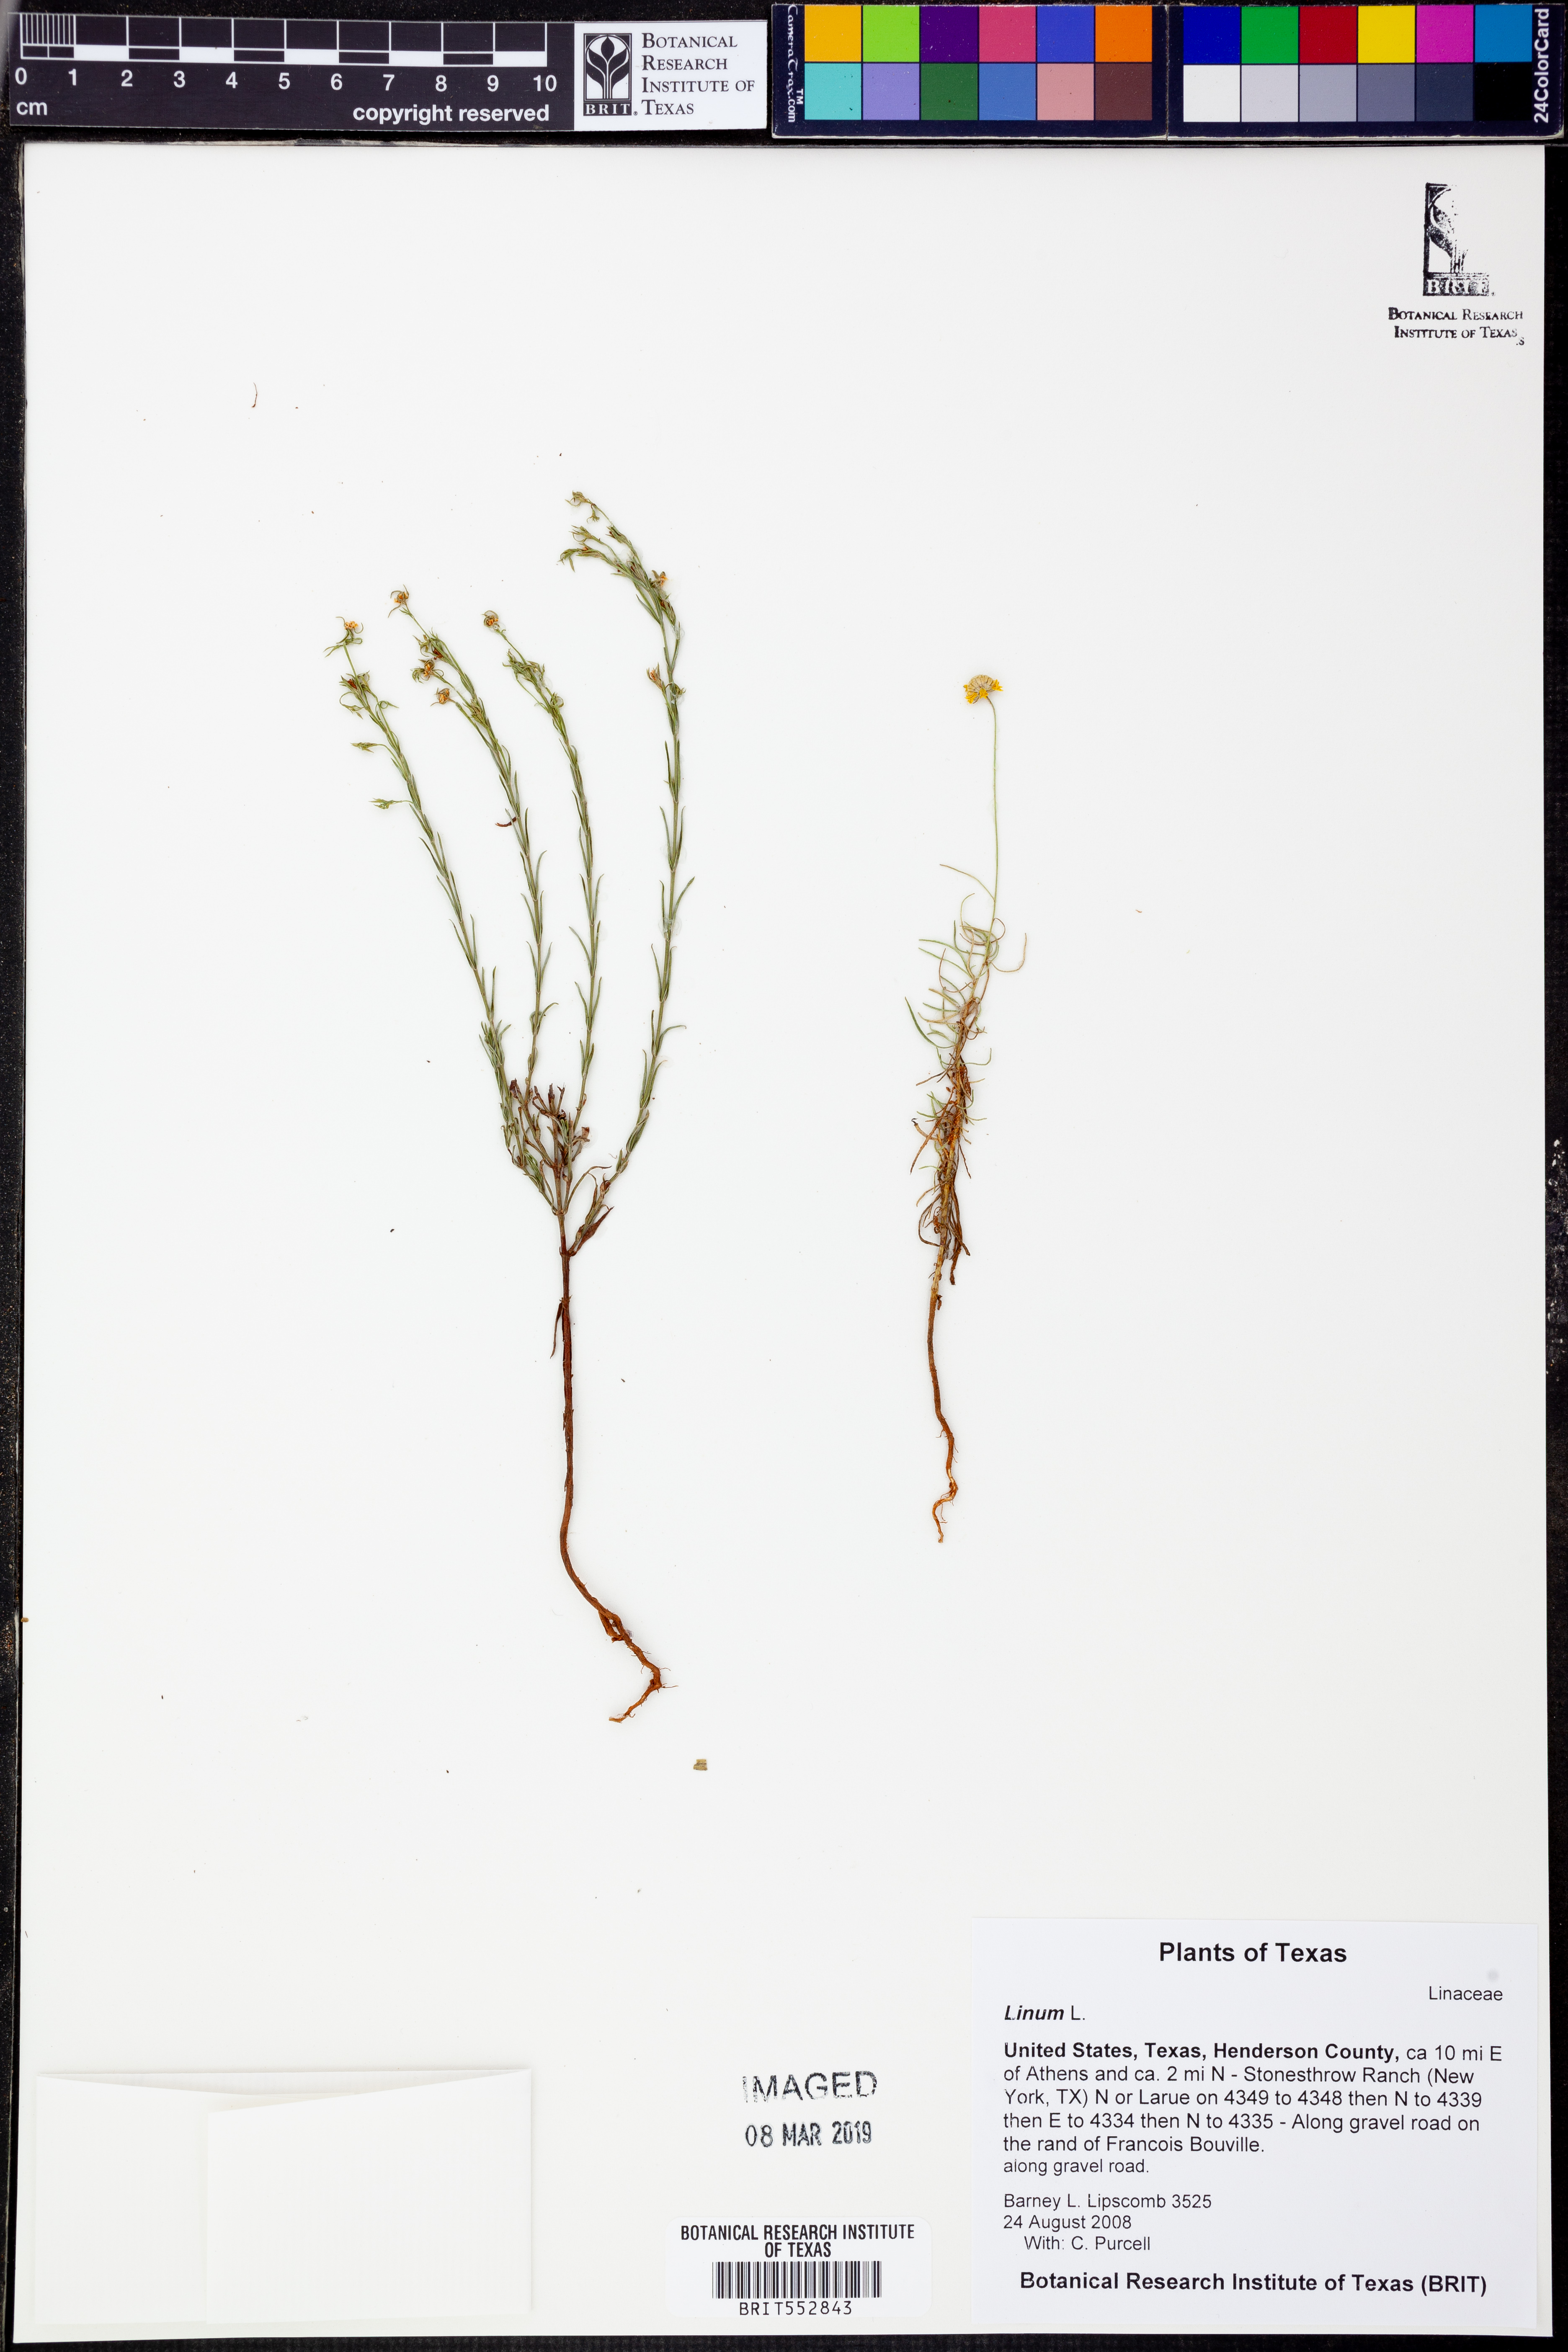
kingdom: Plantae
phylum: Tracheophyta
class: Magnoliopsida
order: Malpighiales
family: Linaceae
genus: Linum
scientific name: Linum
